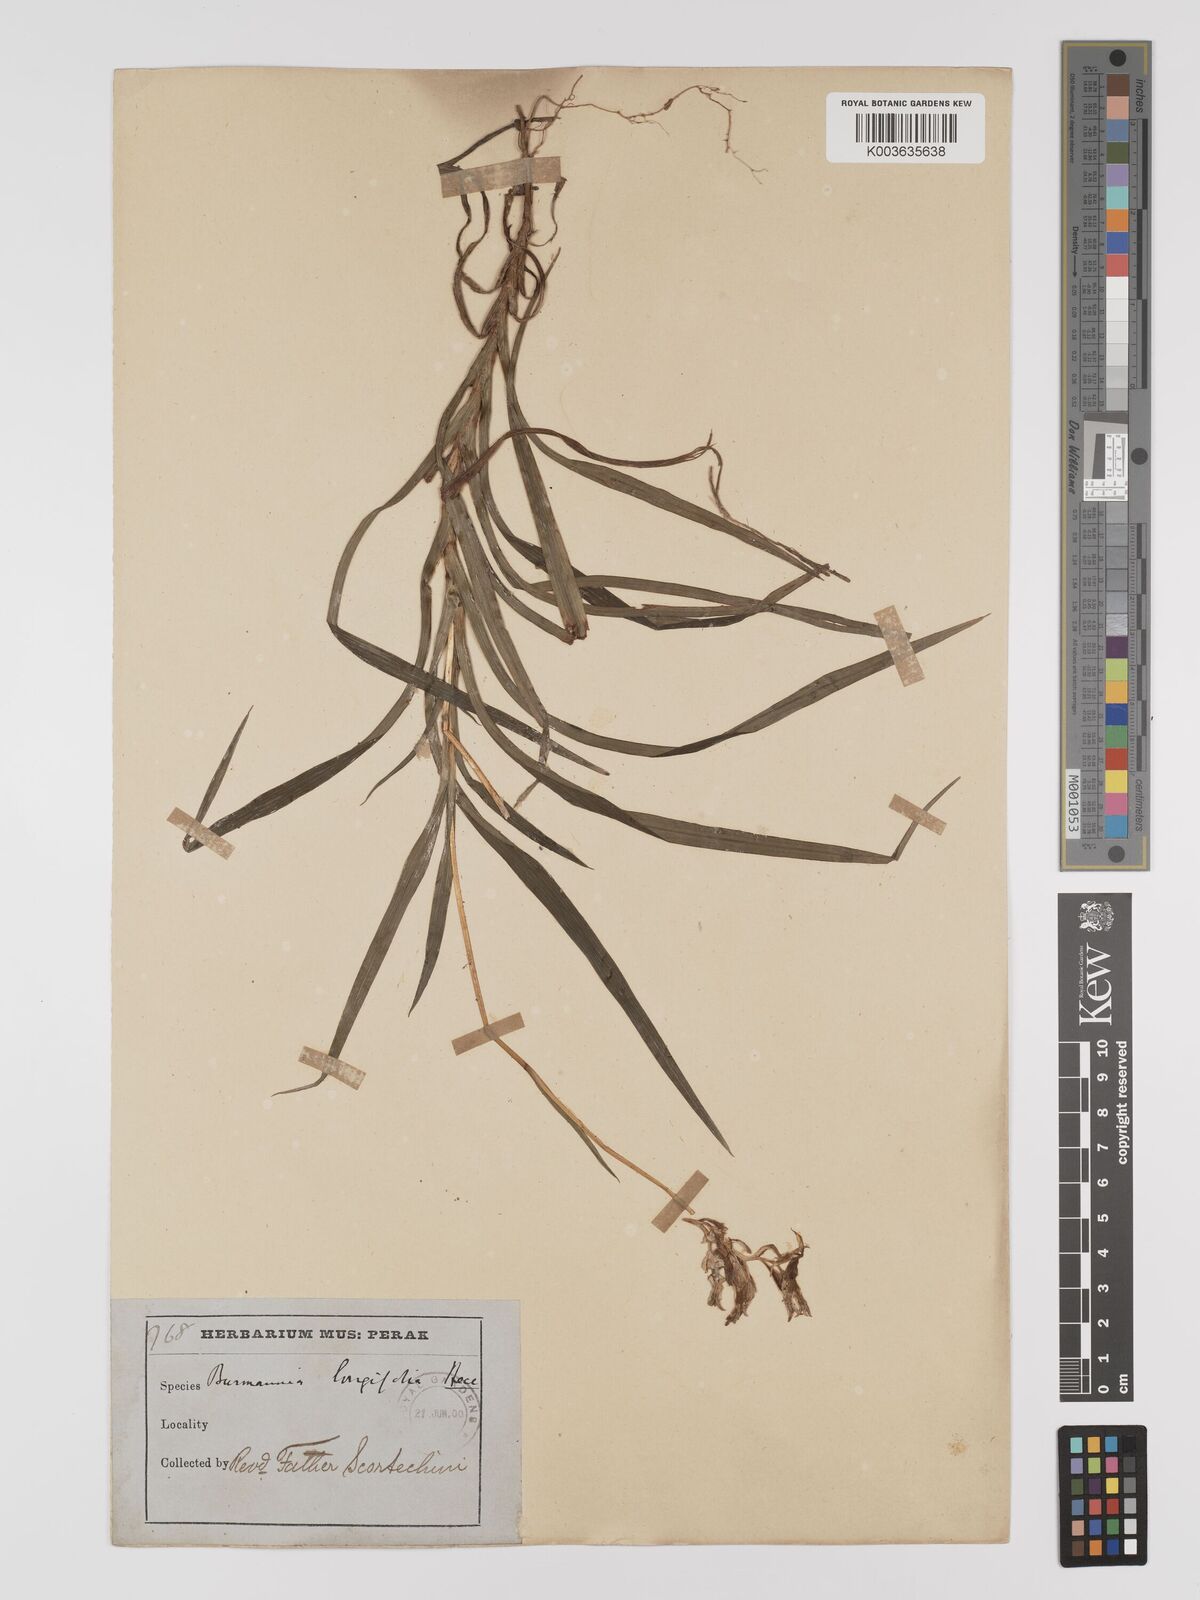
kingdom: Plantae
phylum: Tracheophyta
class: Liliopsida
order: Dioscoreales
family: Burmanniaceae
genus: Burmannia
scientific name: Burmannia longifolia
